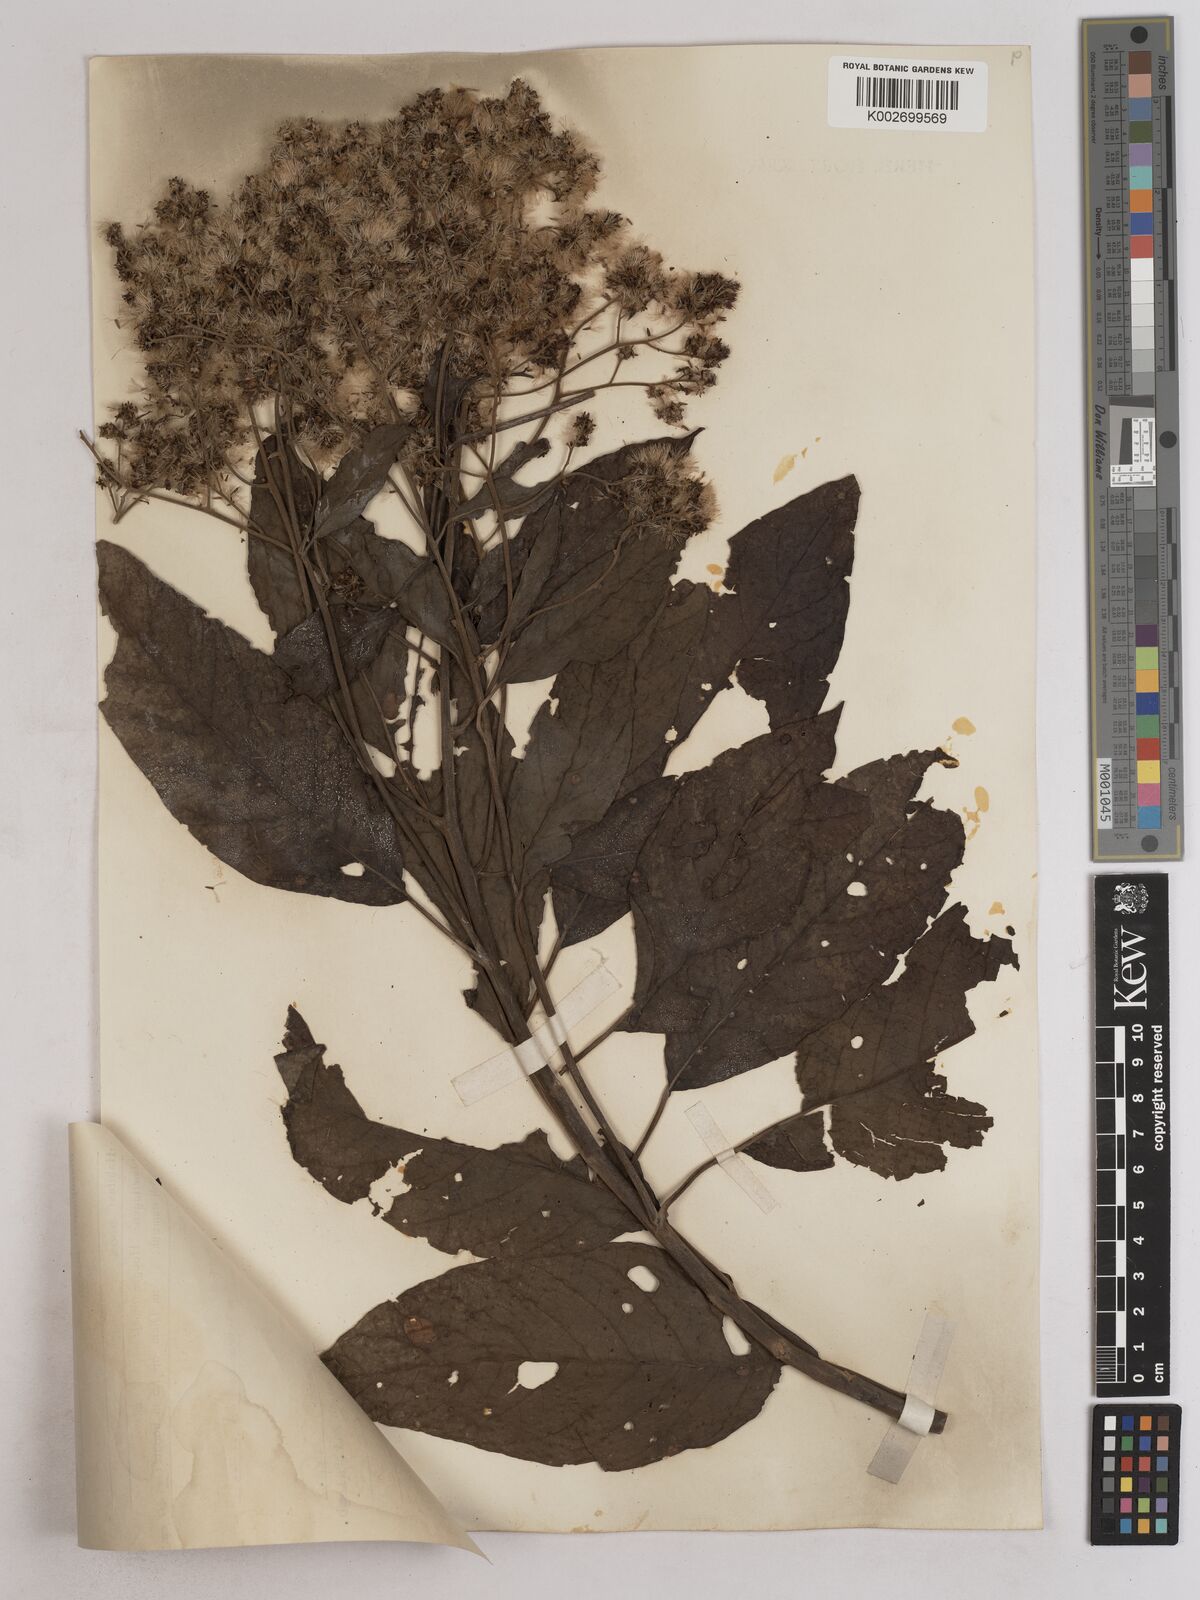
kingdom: Plantae
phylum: Tracheophyta
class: Magnoliopsida
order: Asterales
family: Asteraceae
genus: Strobocalyx
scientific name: Strobocalyx arborea
